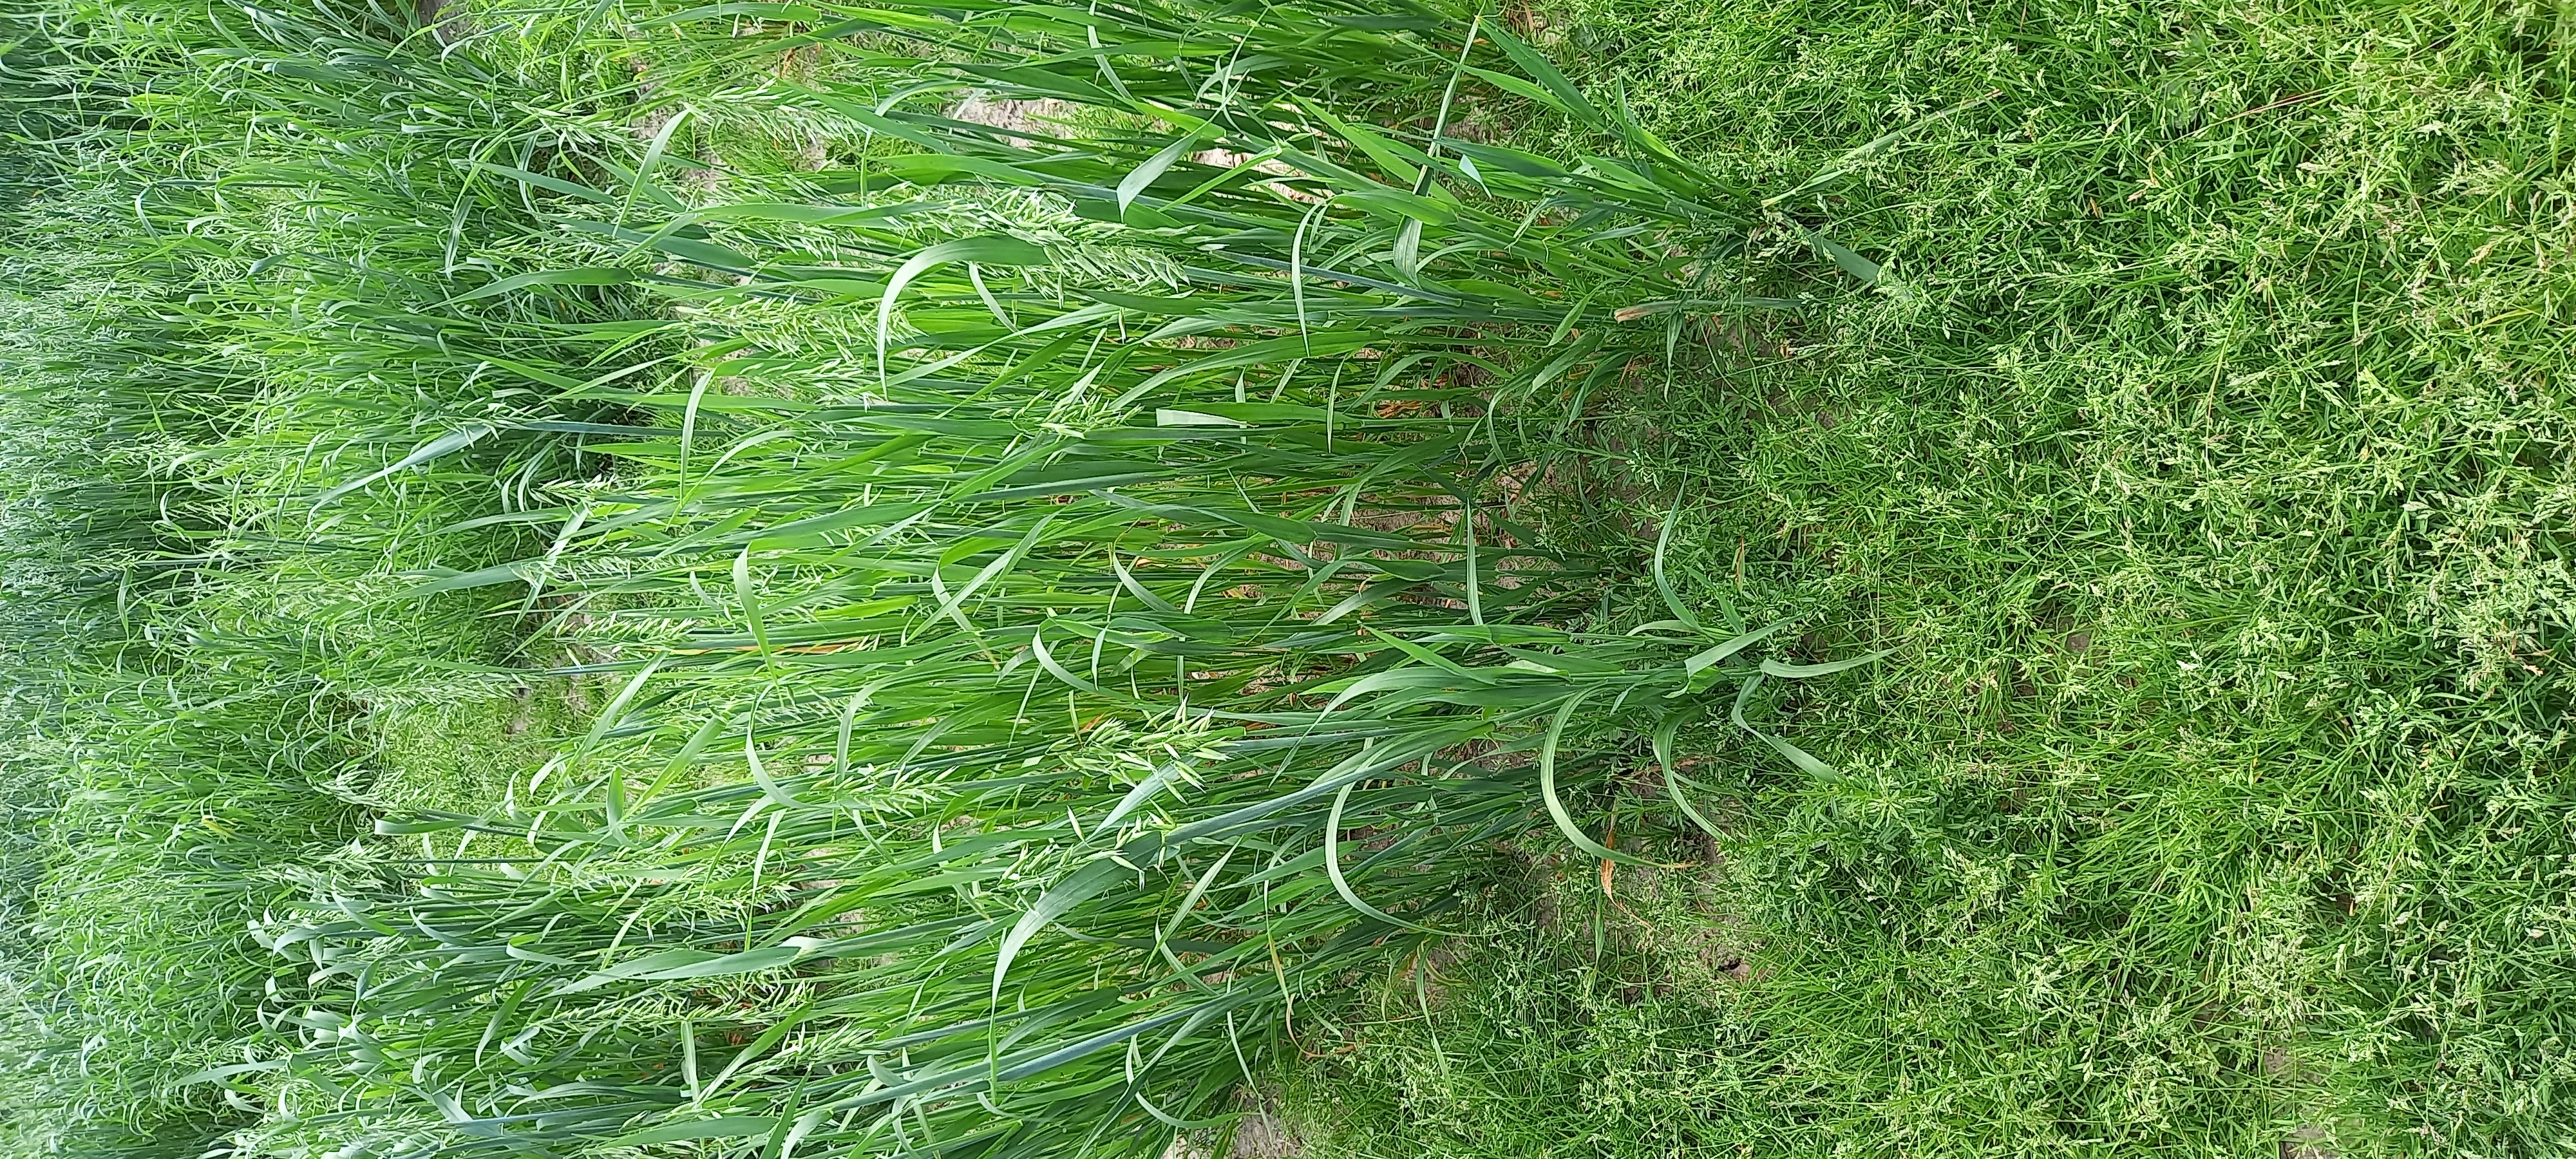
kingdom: Plantae
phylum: Tracheophyta
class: Liliopsida
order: Poales
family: Poaceae
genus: Avena
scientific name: Avena sativa
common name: Oat
